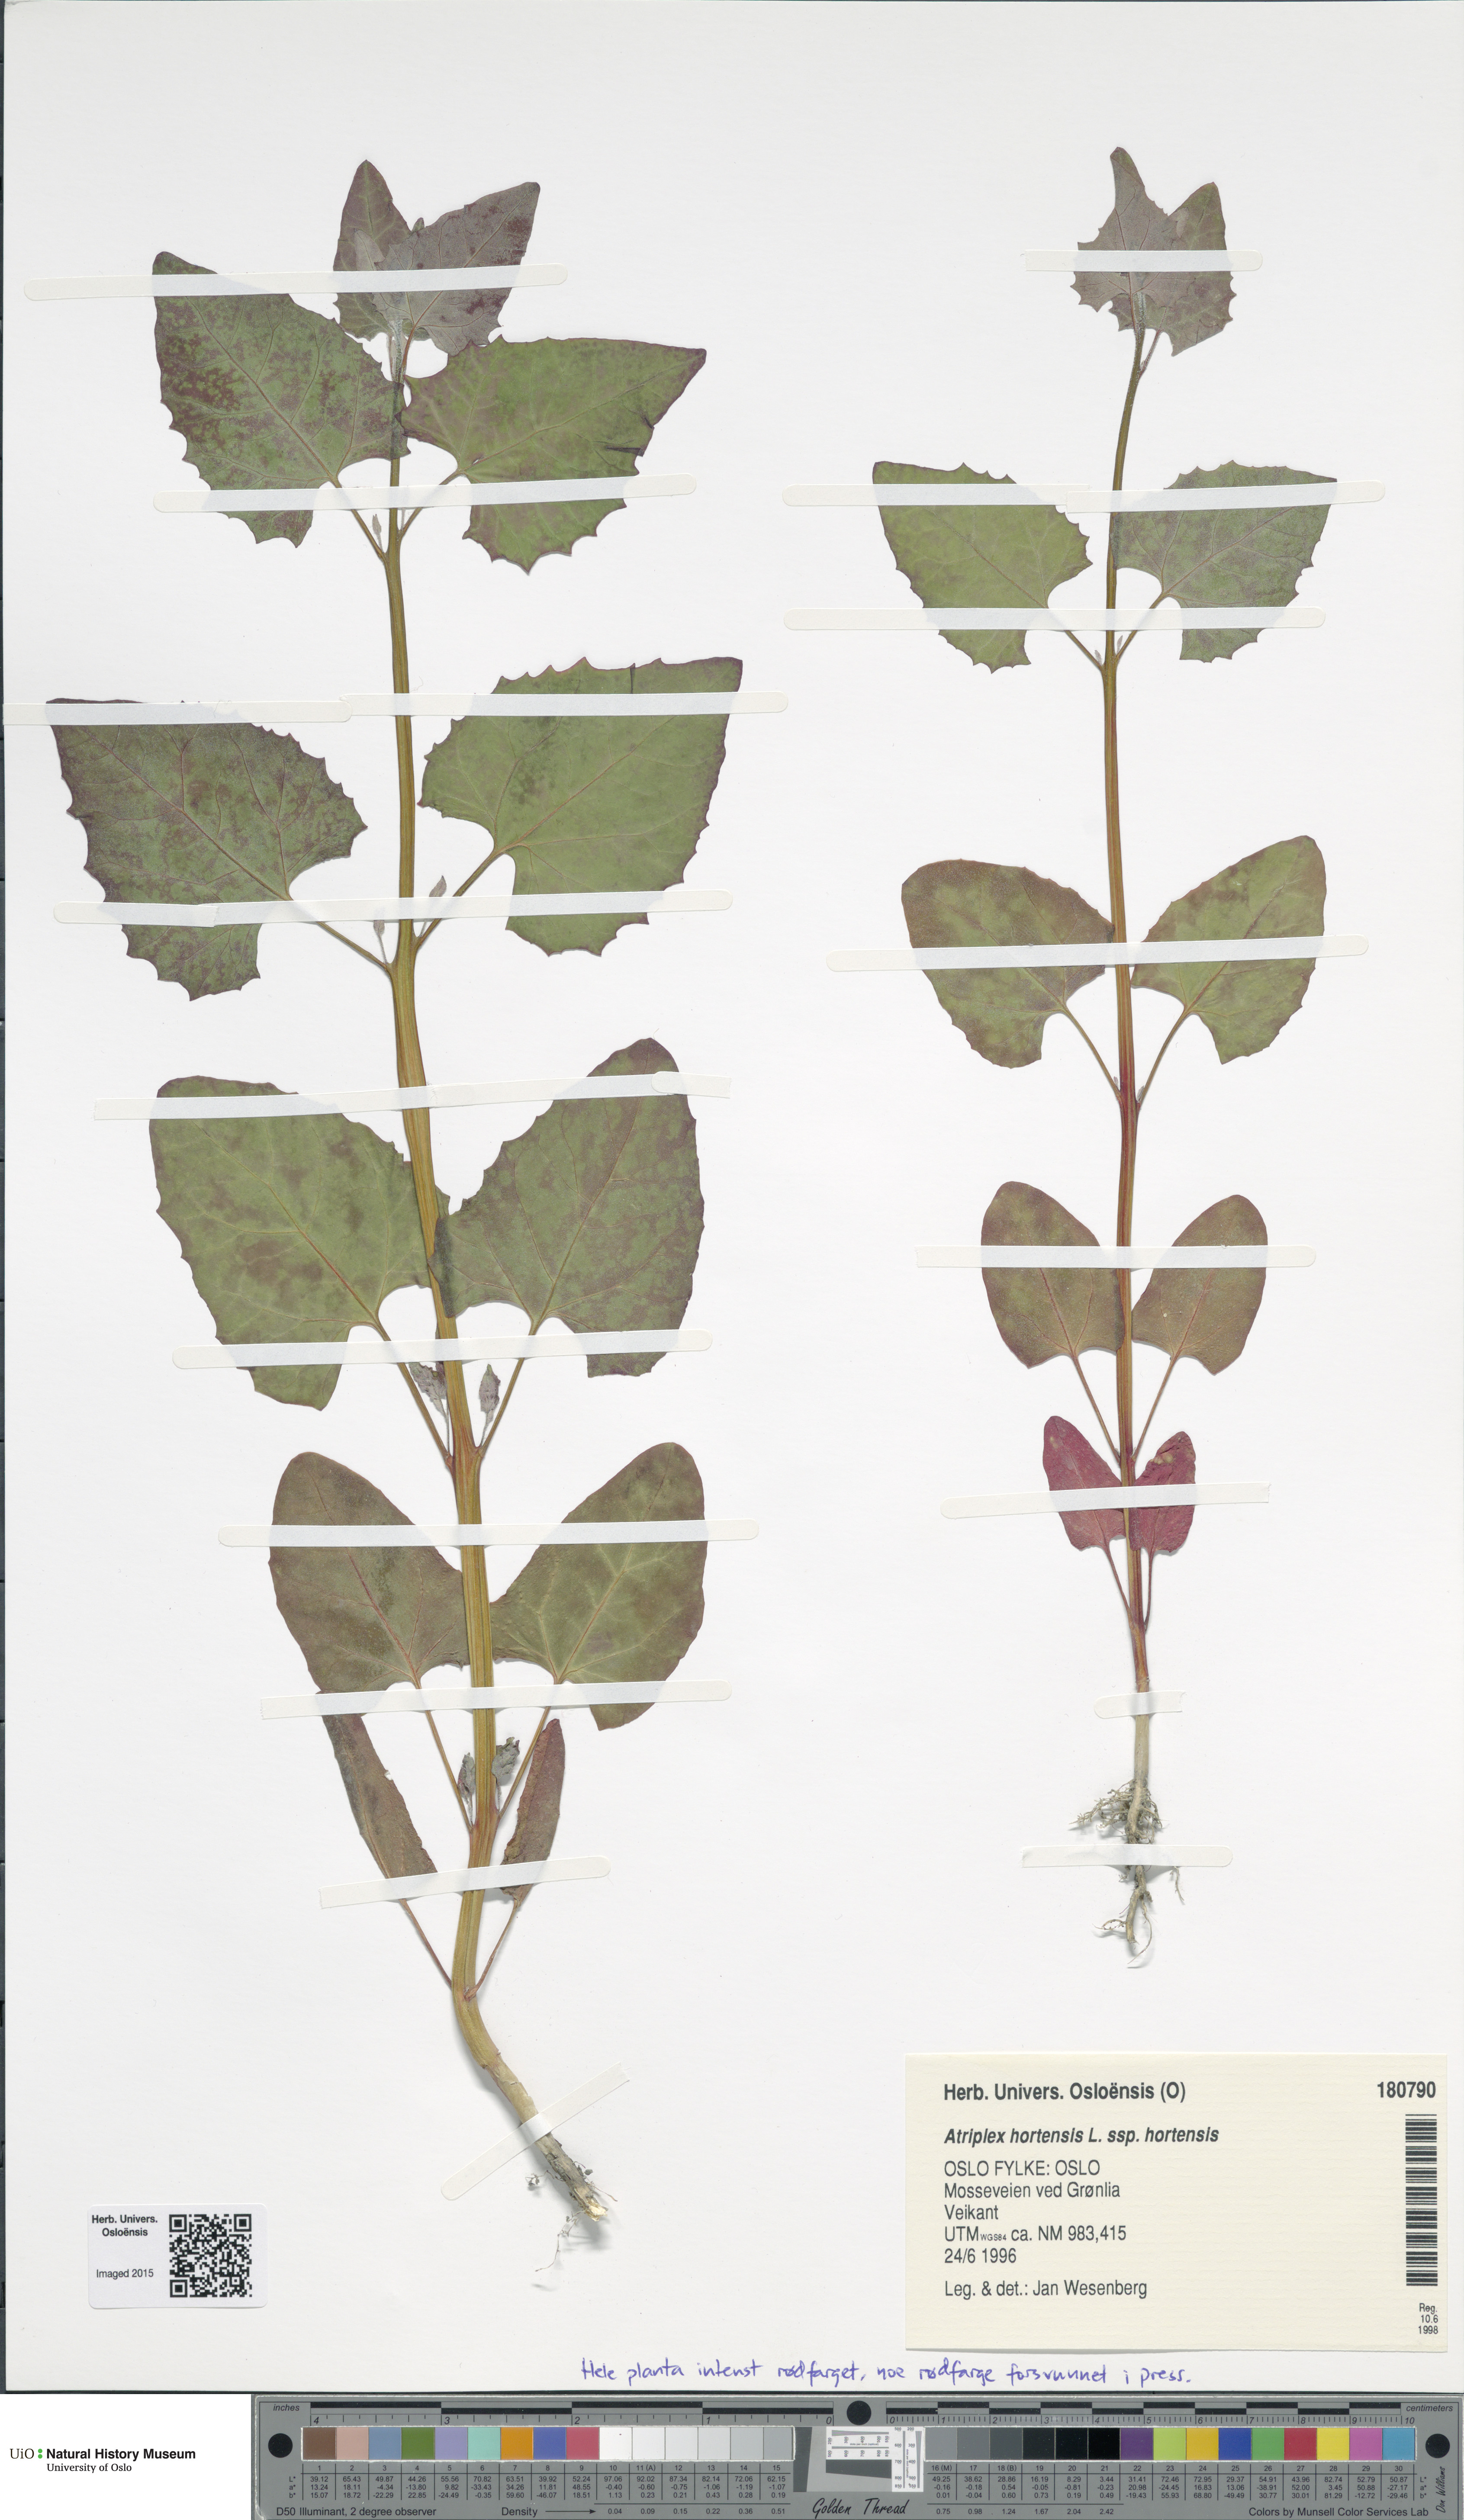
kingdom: Plantae
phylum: Tracheophyta
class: Magnoliopsida
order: Caryophyllales
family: Amaranthaceae
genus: Atriplex
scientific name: Atriplex hortensis
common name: Garden orache
